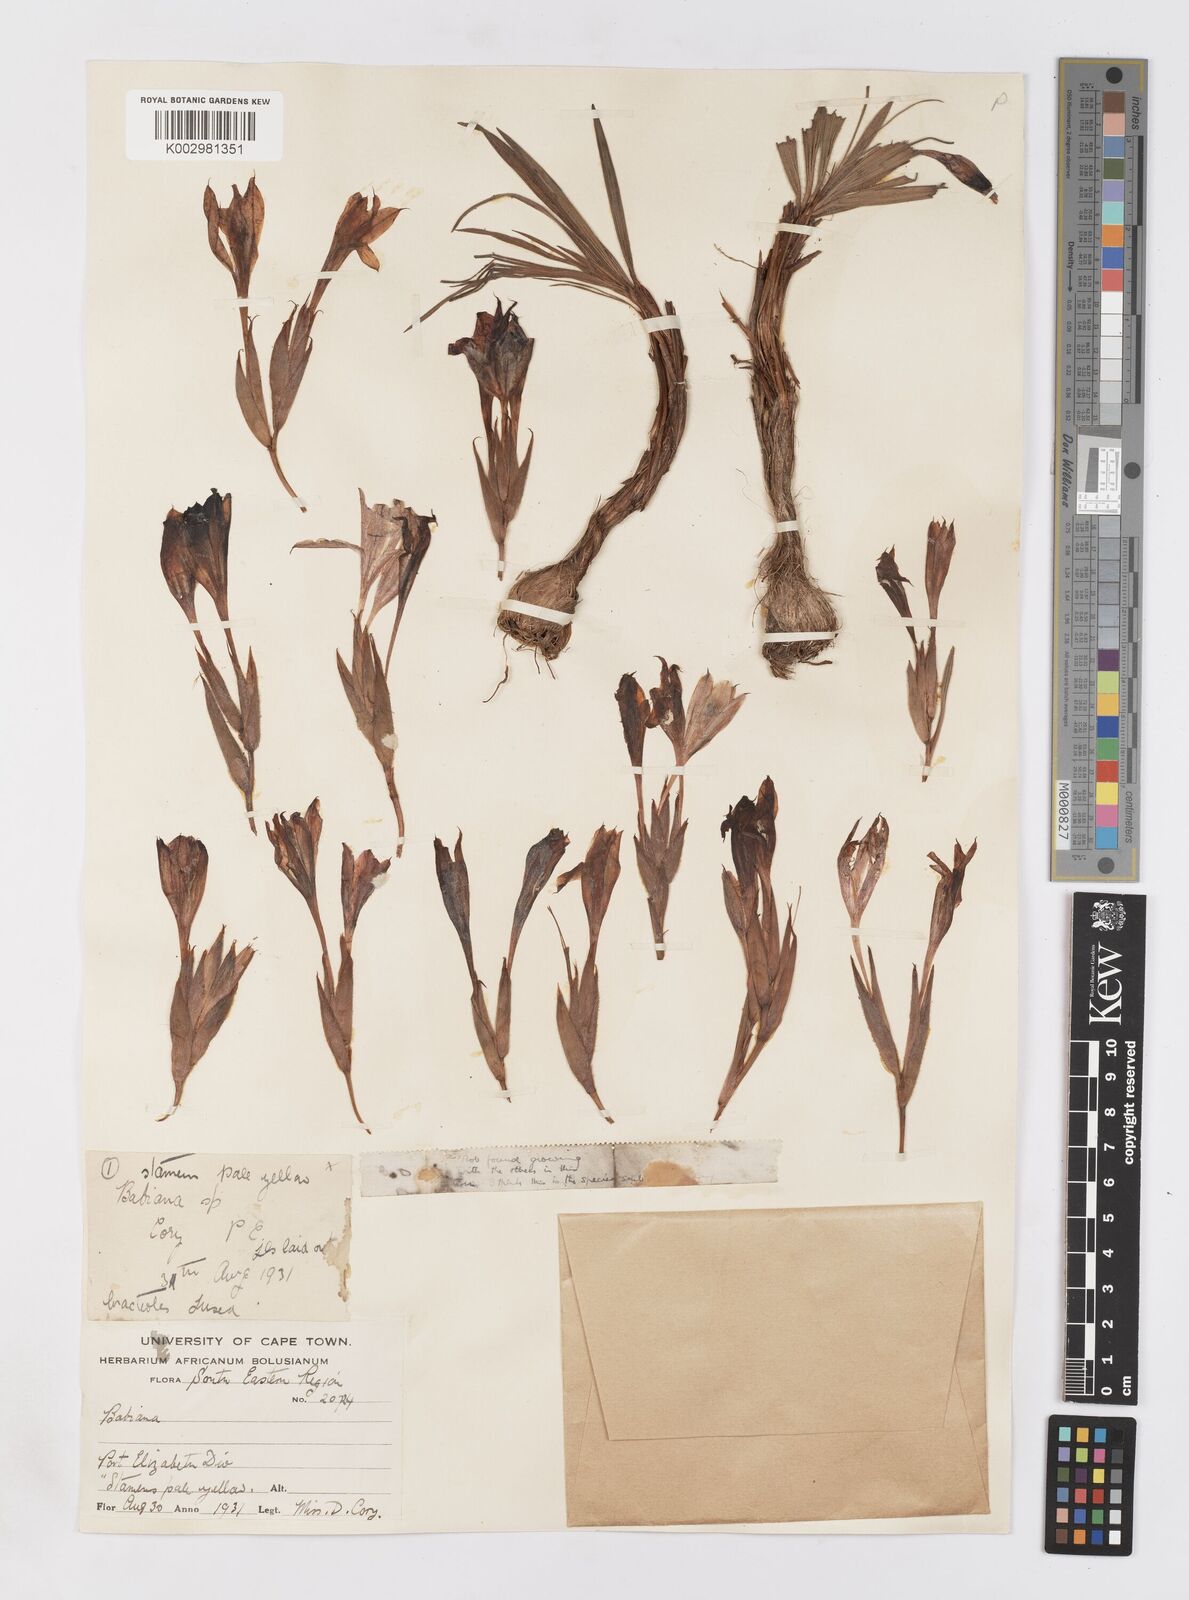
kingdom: Plantae
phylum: Tracheophyta
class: Liliopsida
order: Asparagales
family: Iridaceae
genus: Babiana
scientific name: Babiana
